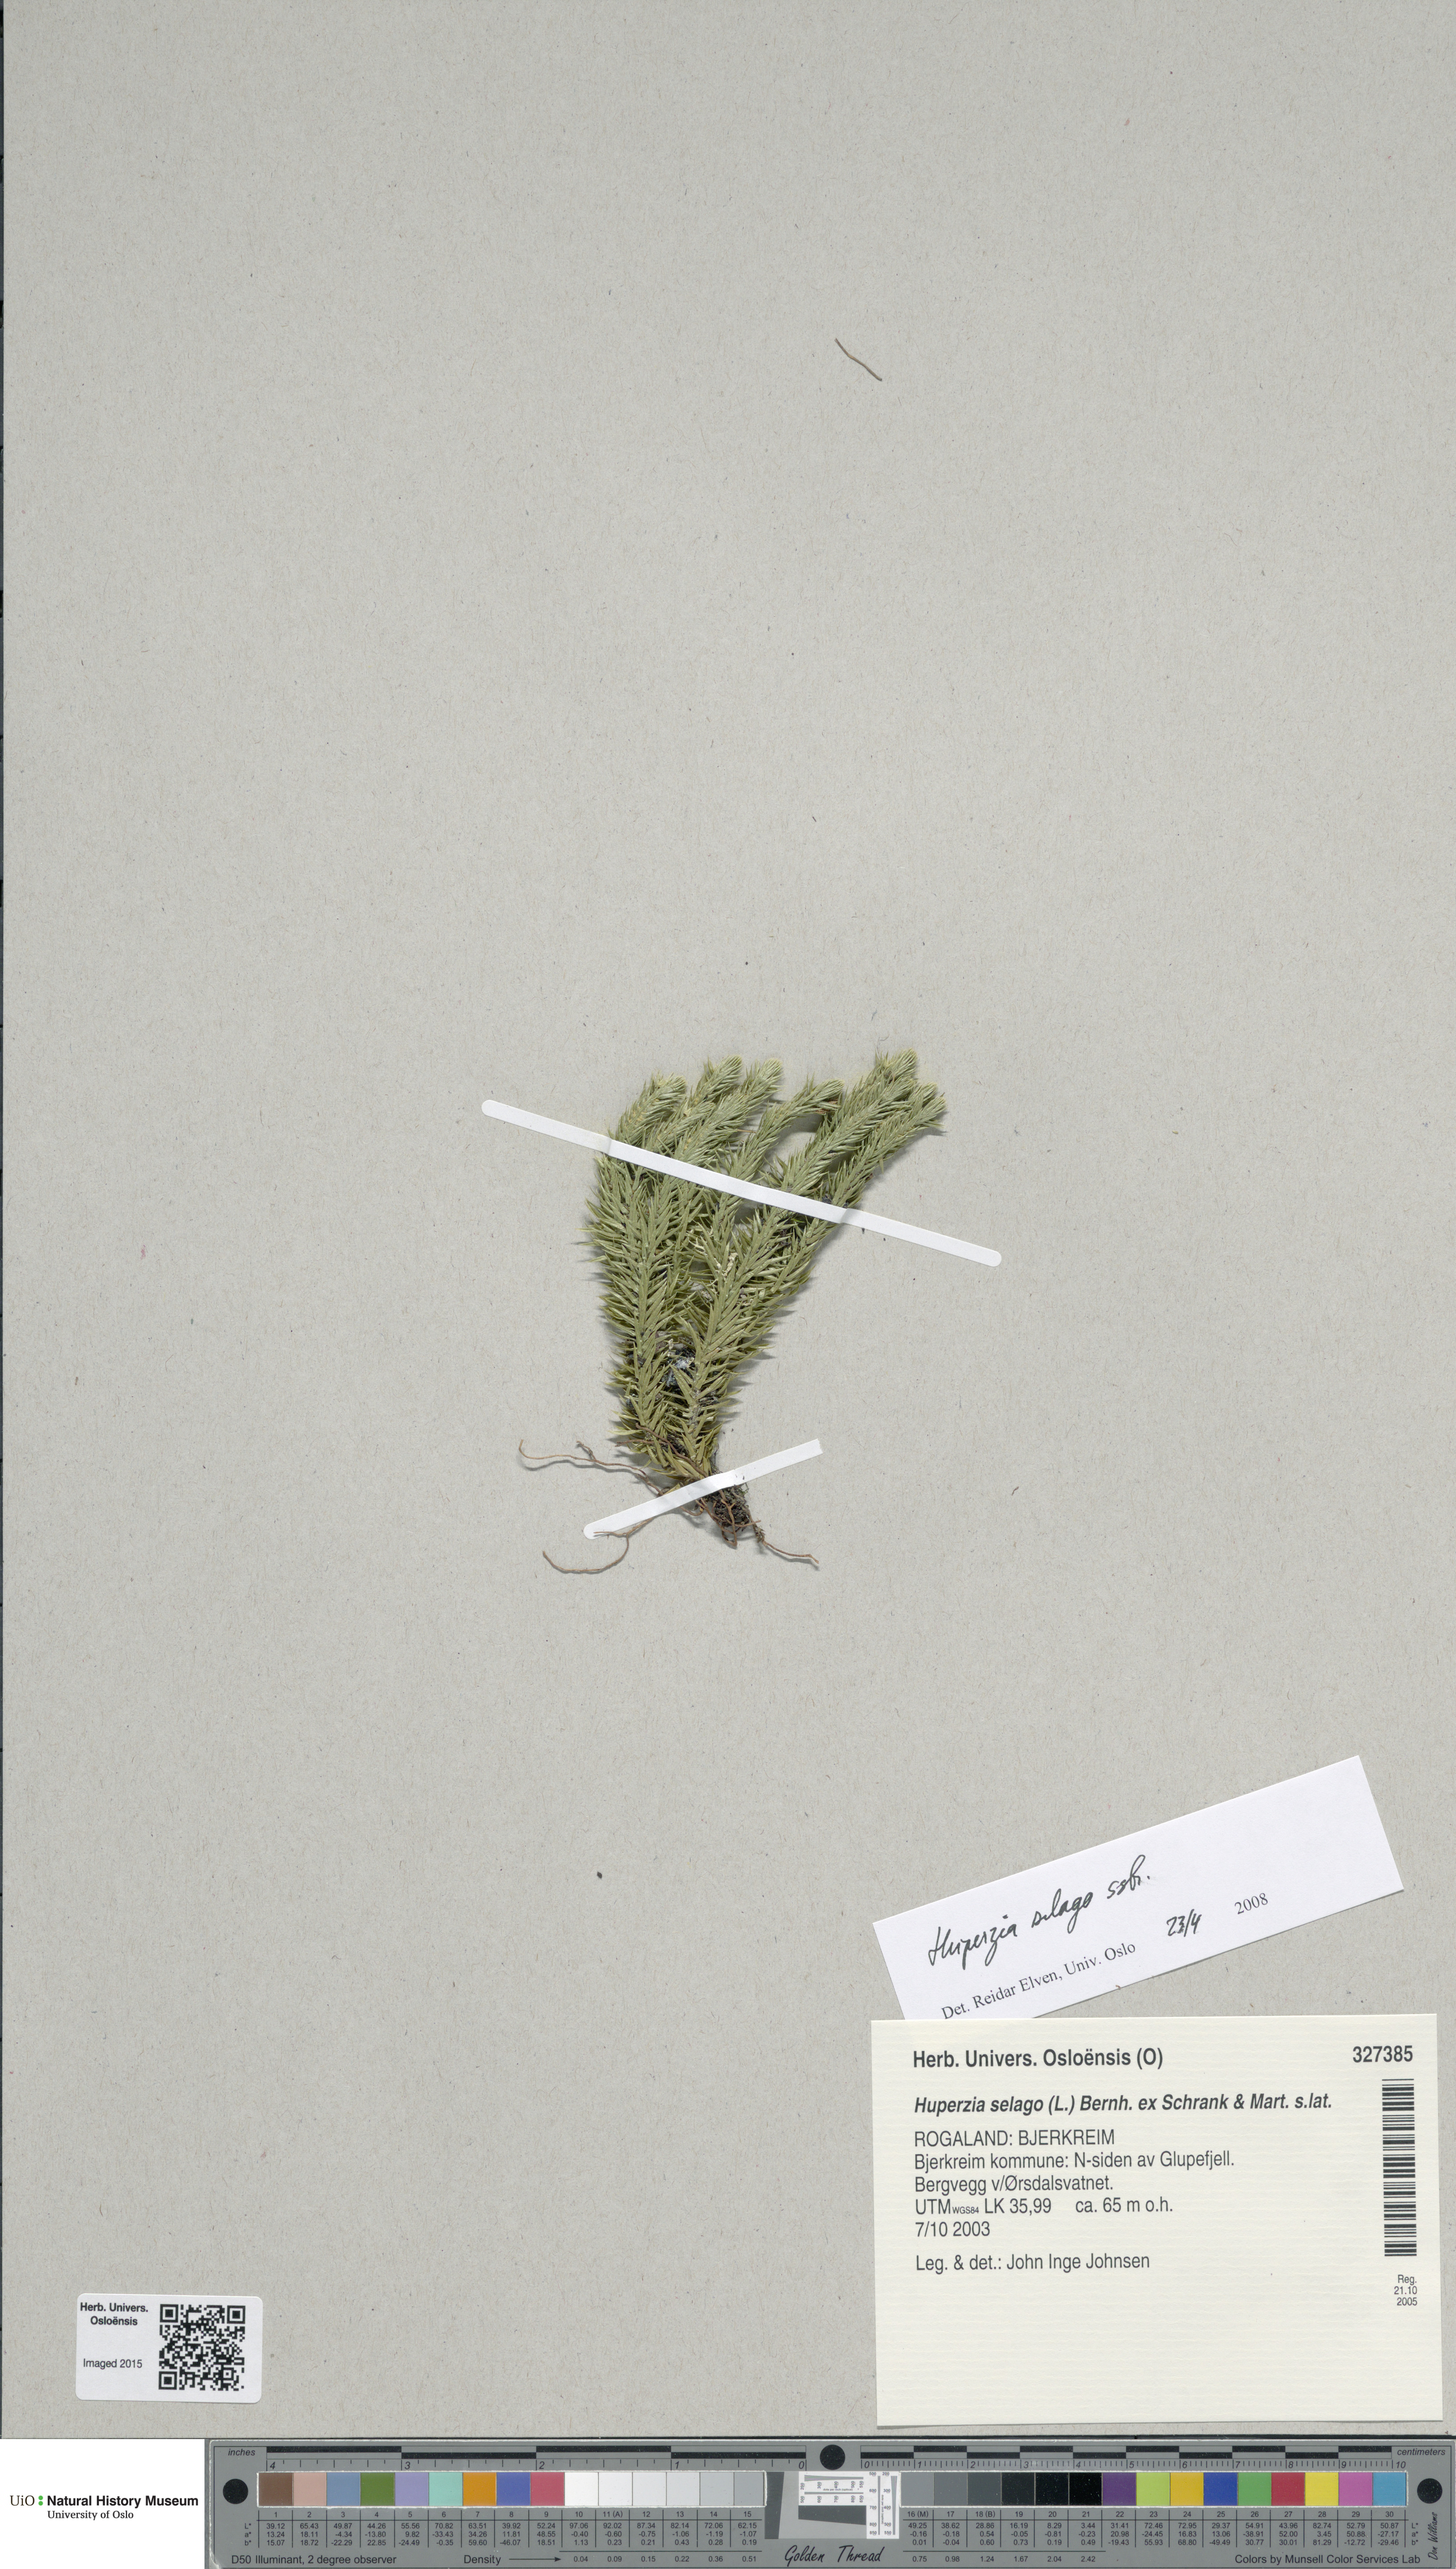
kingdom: Plantae
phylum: Tracheophyta
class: Lycopodiopsida
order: Lycopodiales
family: Lycopodiaceae
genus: Huperzia
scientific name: Huperzia selago
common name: Northern firmoss
